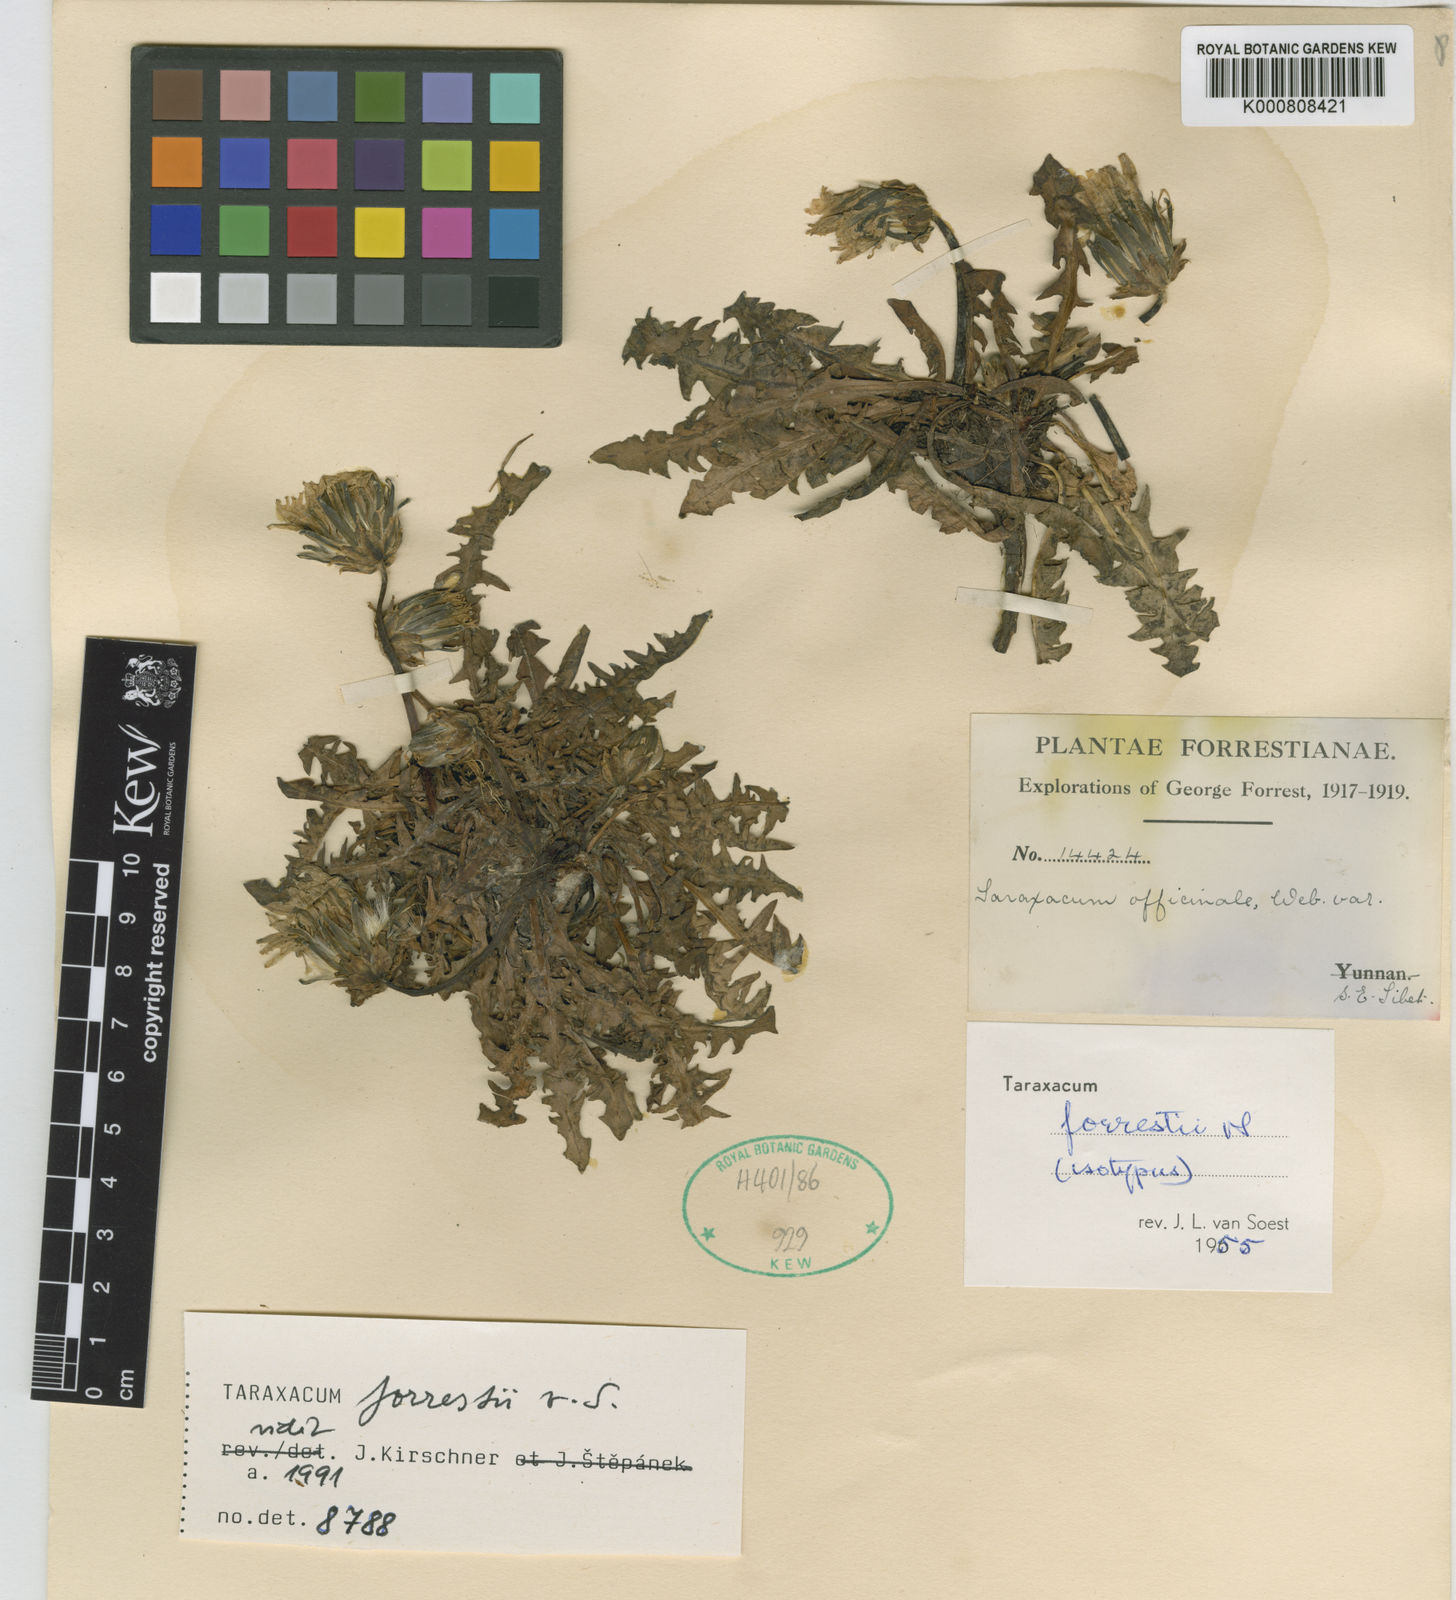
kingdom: Plantae
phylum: Tracheophyta
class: Magnoliopsida
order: Asterales
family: Asteraceae
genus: Taraxacum
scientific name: Taraxacum forrestii
